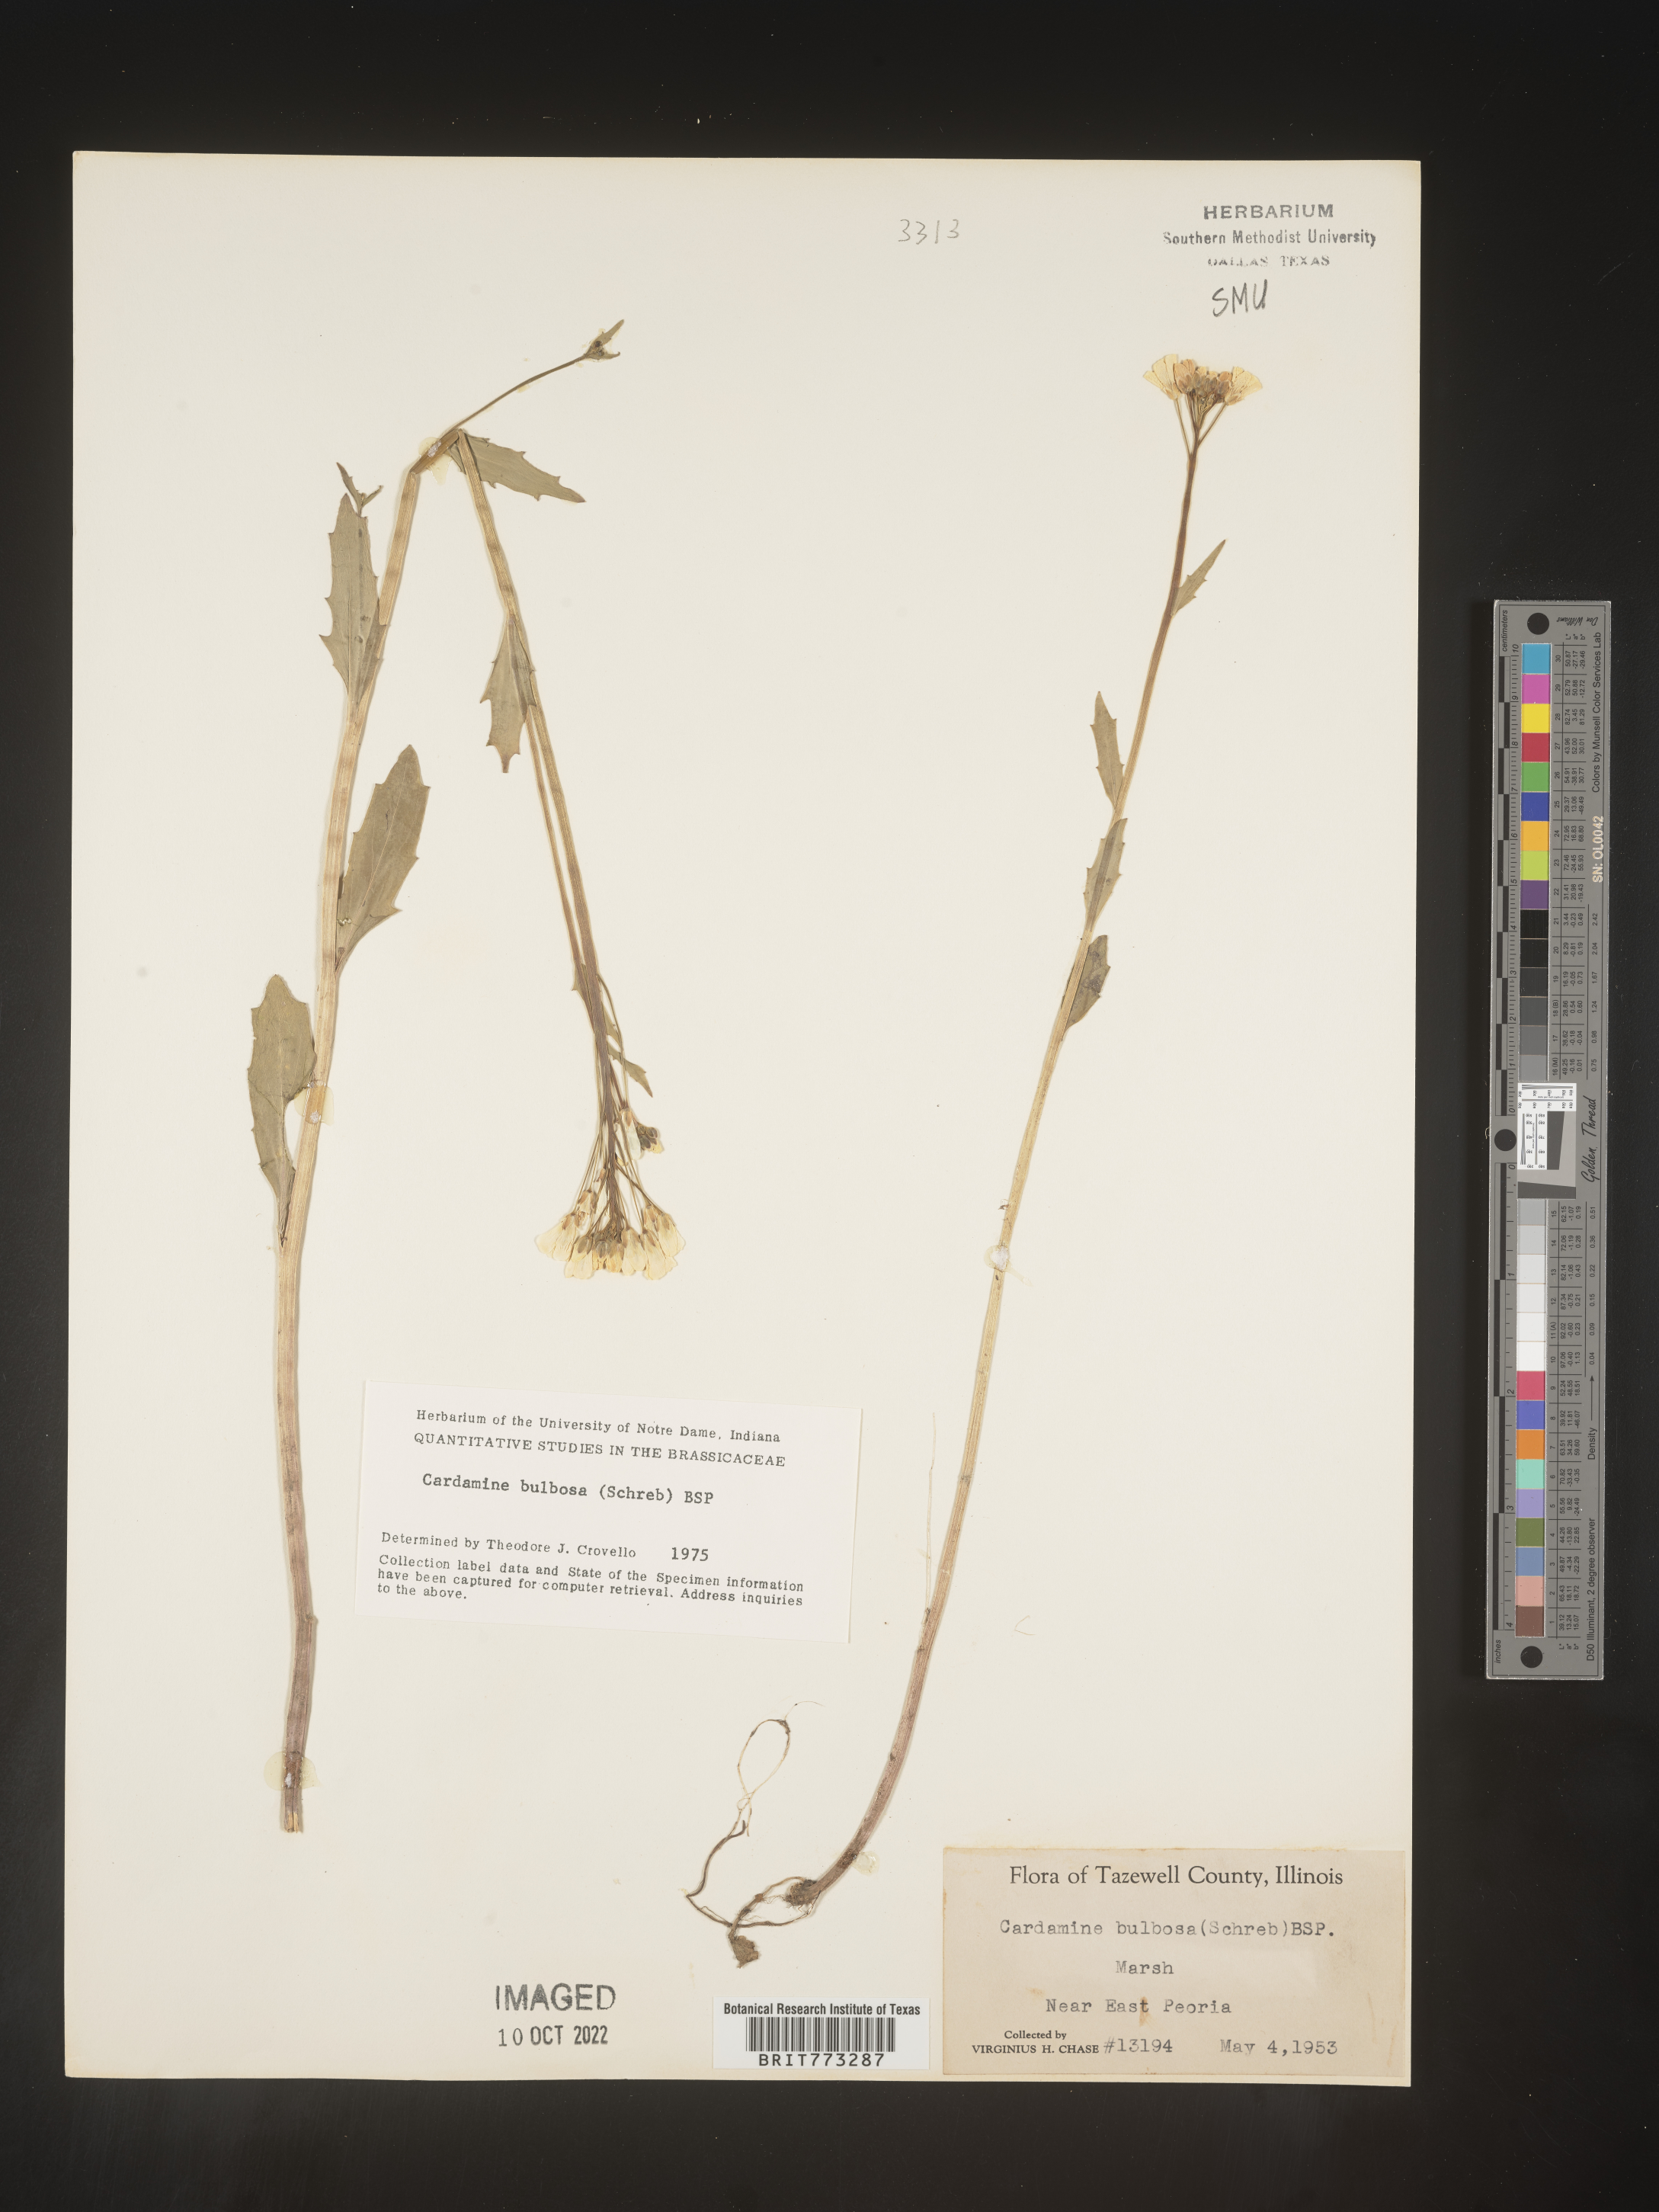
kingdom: Plantae
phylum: Tracheophyta
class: Magnoliopsida
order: Brassicales
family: Brassicaceae
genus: Cardamine
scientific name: Cardamine bulbosa
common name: Spring cress
